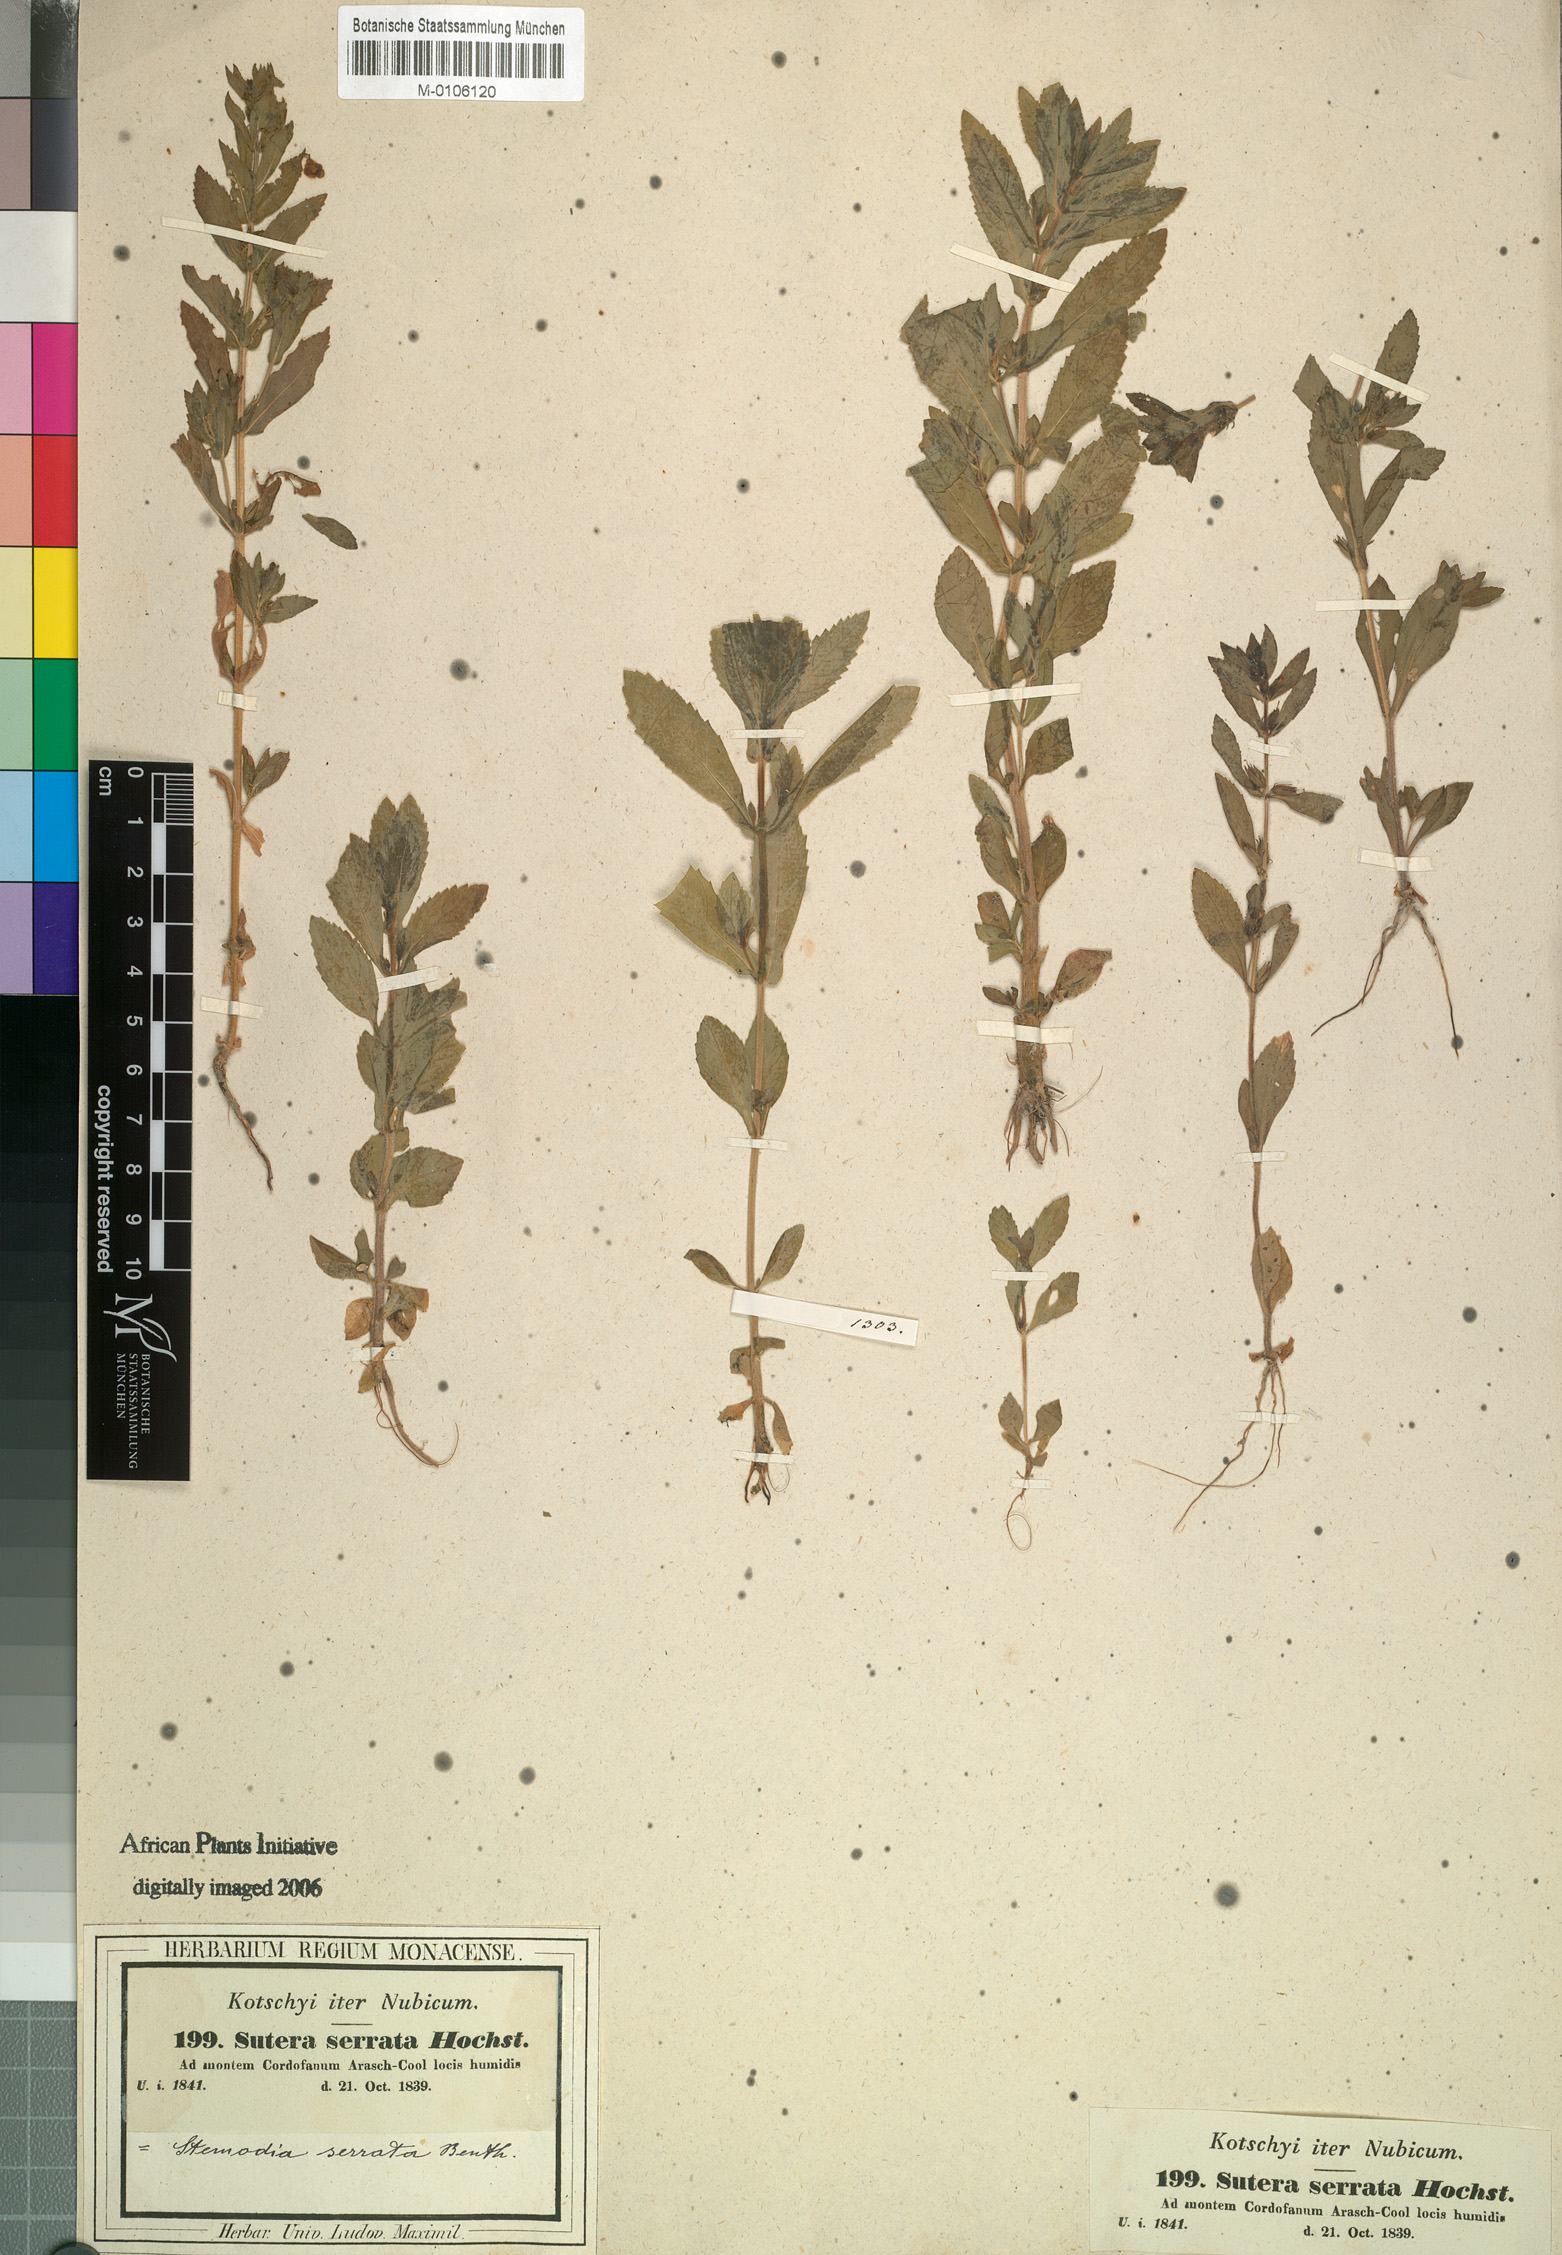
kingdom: Plantae
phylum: Tracheophyta
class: Magnoliopsida
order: Lamiales
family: Plantaginaceae
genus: Stemodia
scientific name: Stemodia serrata
